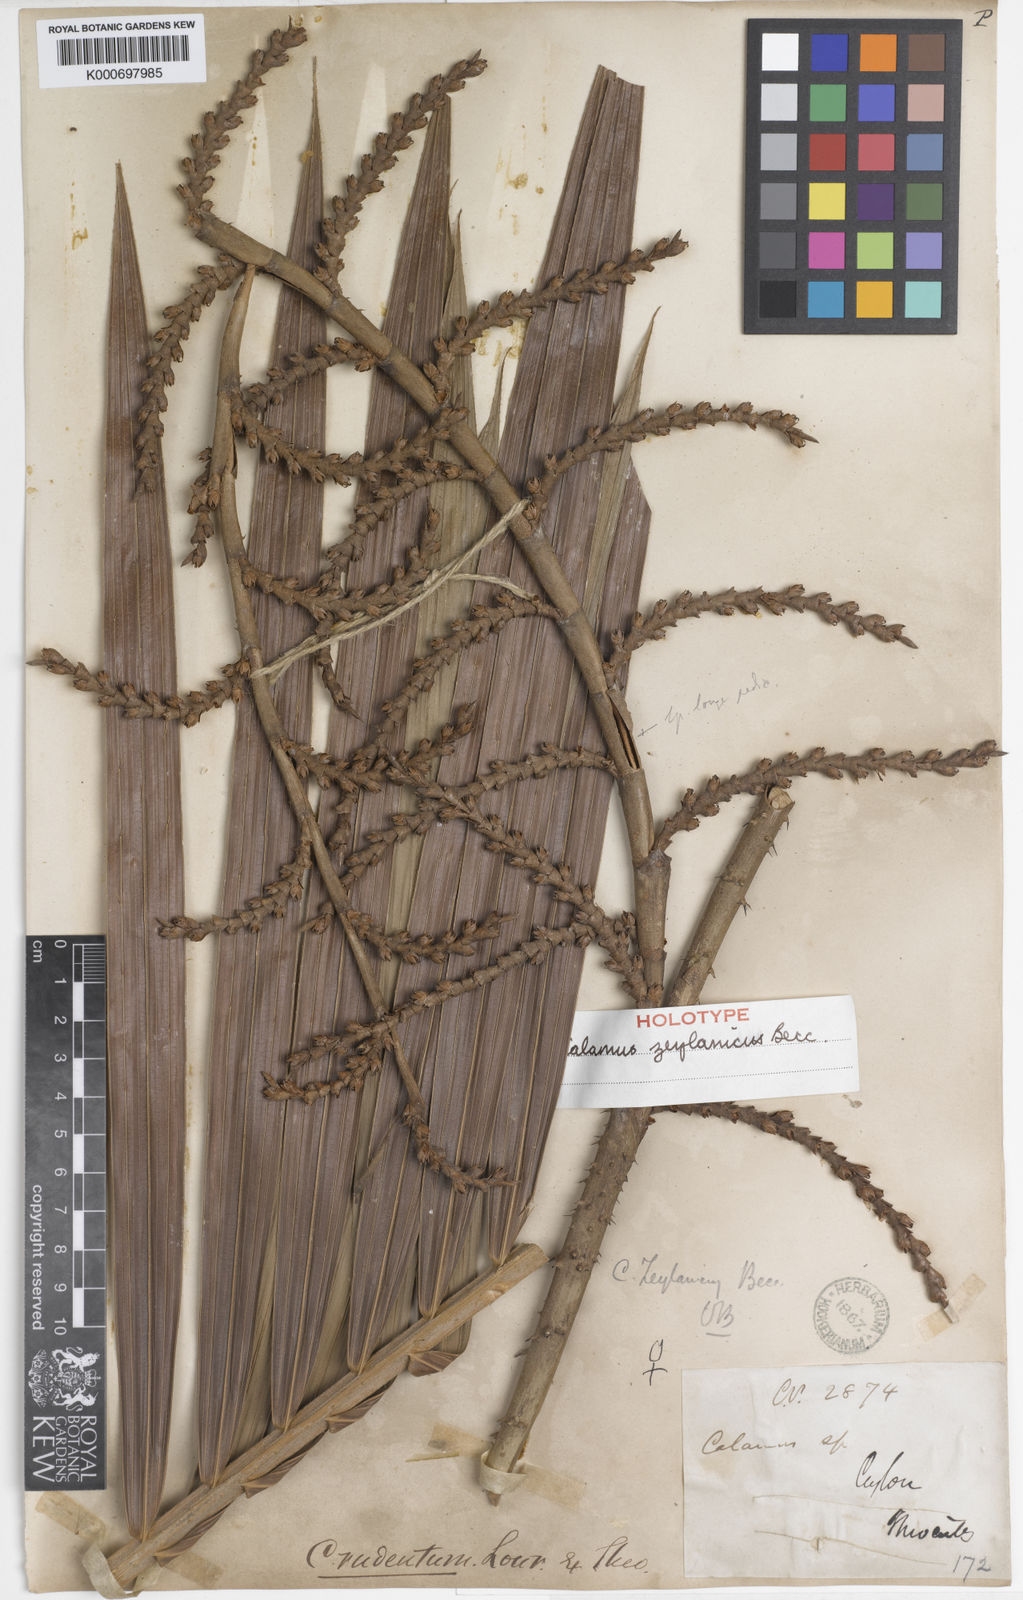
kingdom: Plantae
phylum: Tracheophyta
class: Liliopsida
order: Arecales
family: Arecaceae
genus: Calamus
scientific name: Calamus zeylanicus
